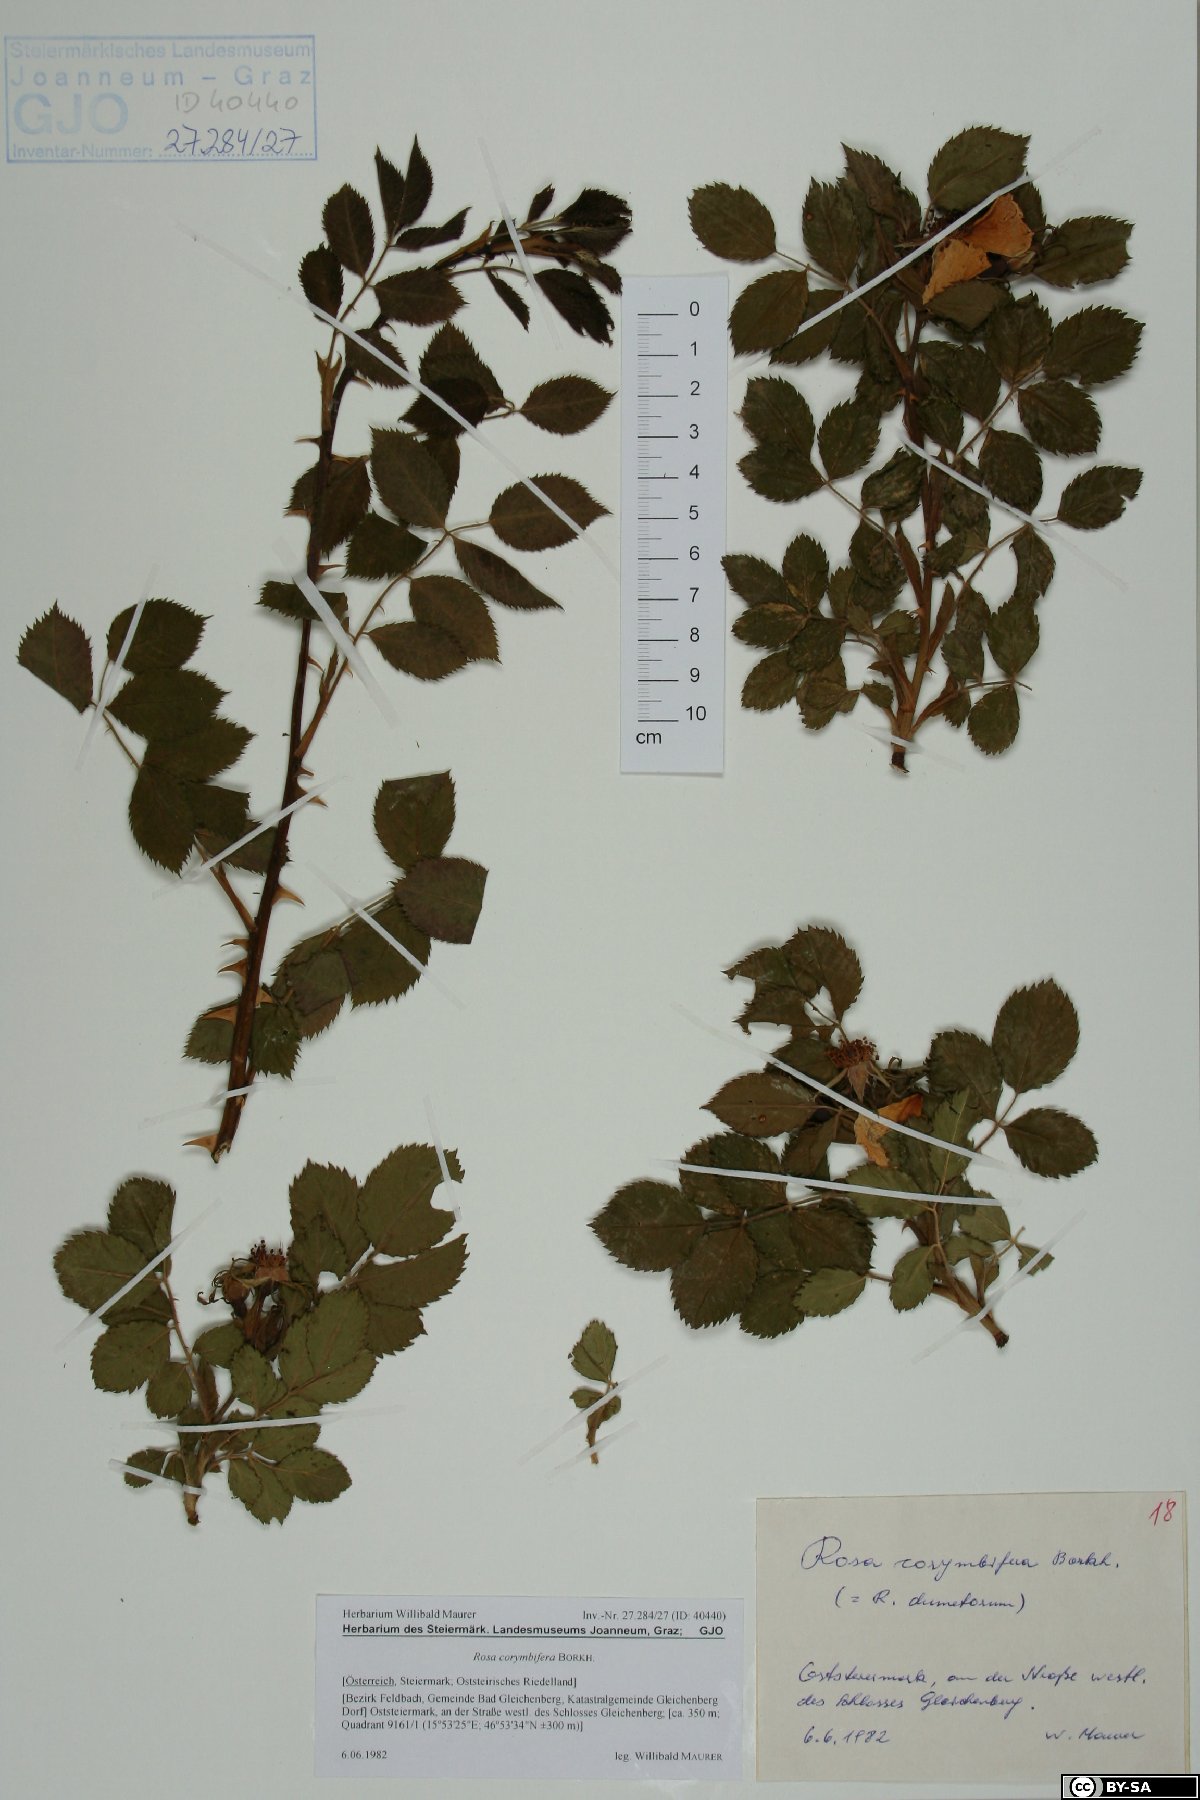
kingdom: Plantae
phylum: Tracheophyta
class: Magnoliopsida
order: Rosales
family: Rosaceae
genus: Rosa
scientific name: Rosa corymbifera
